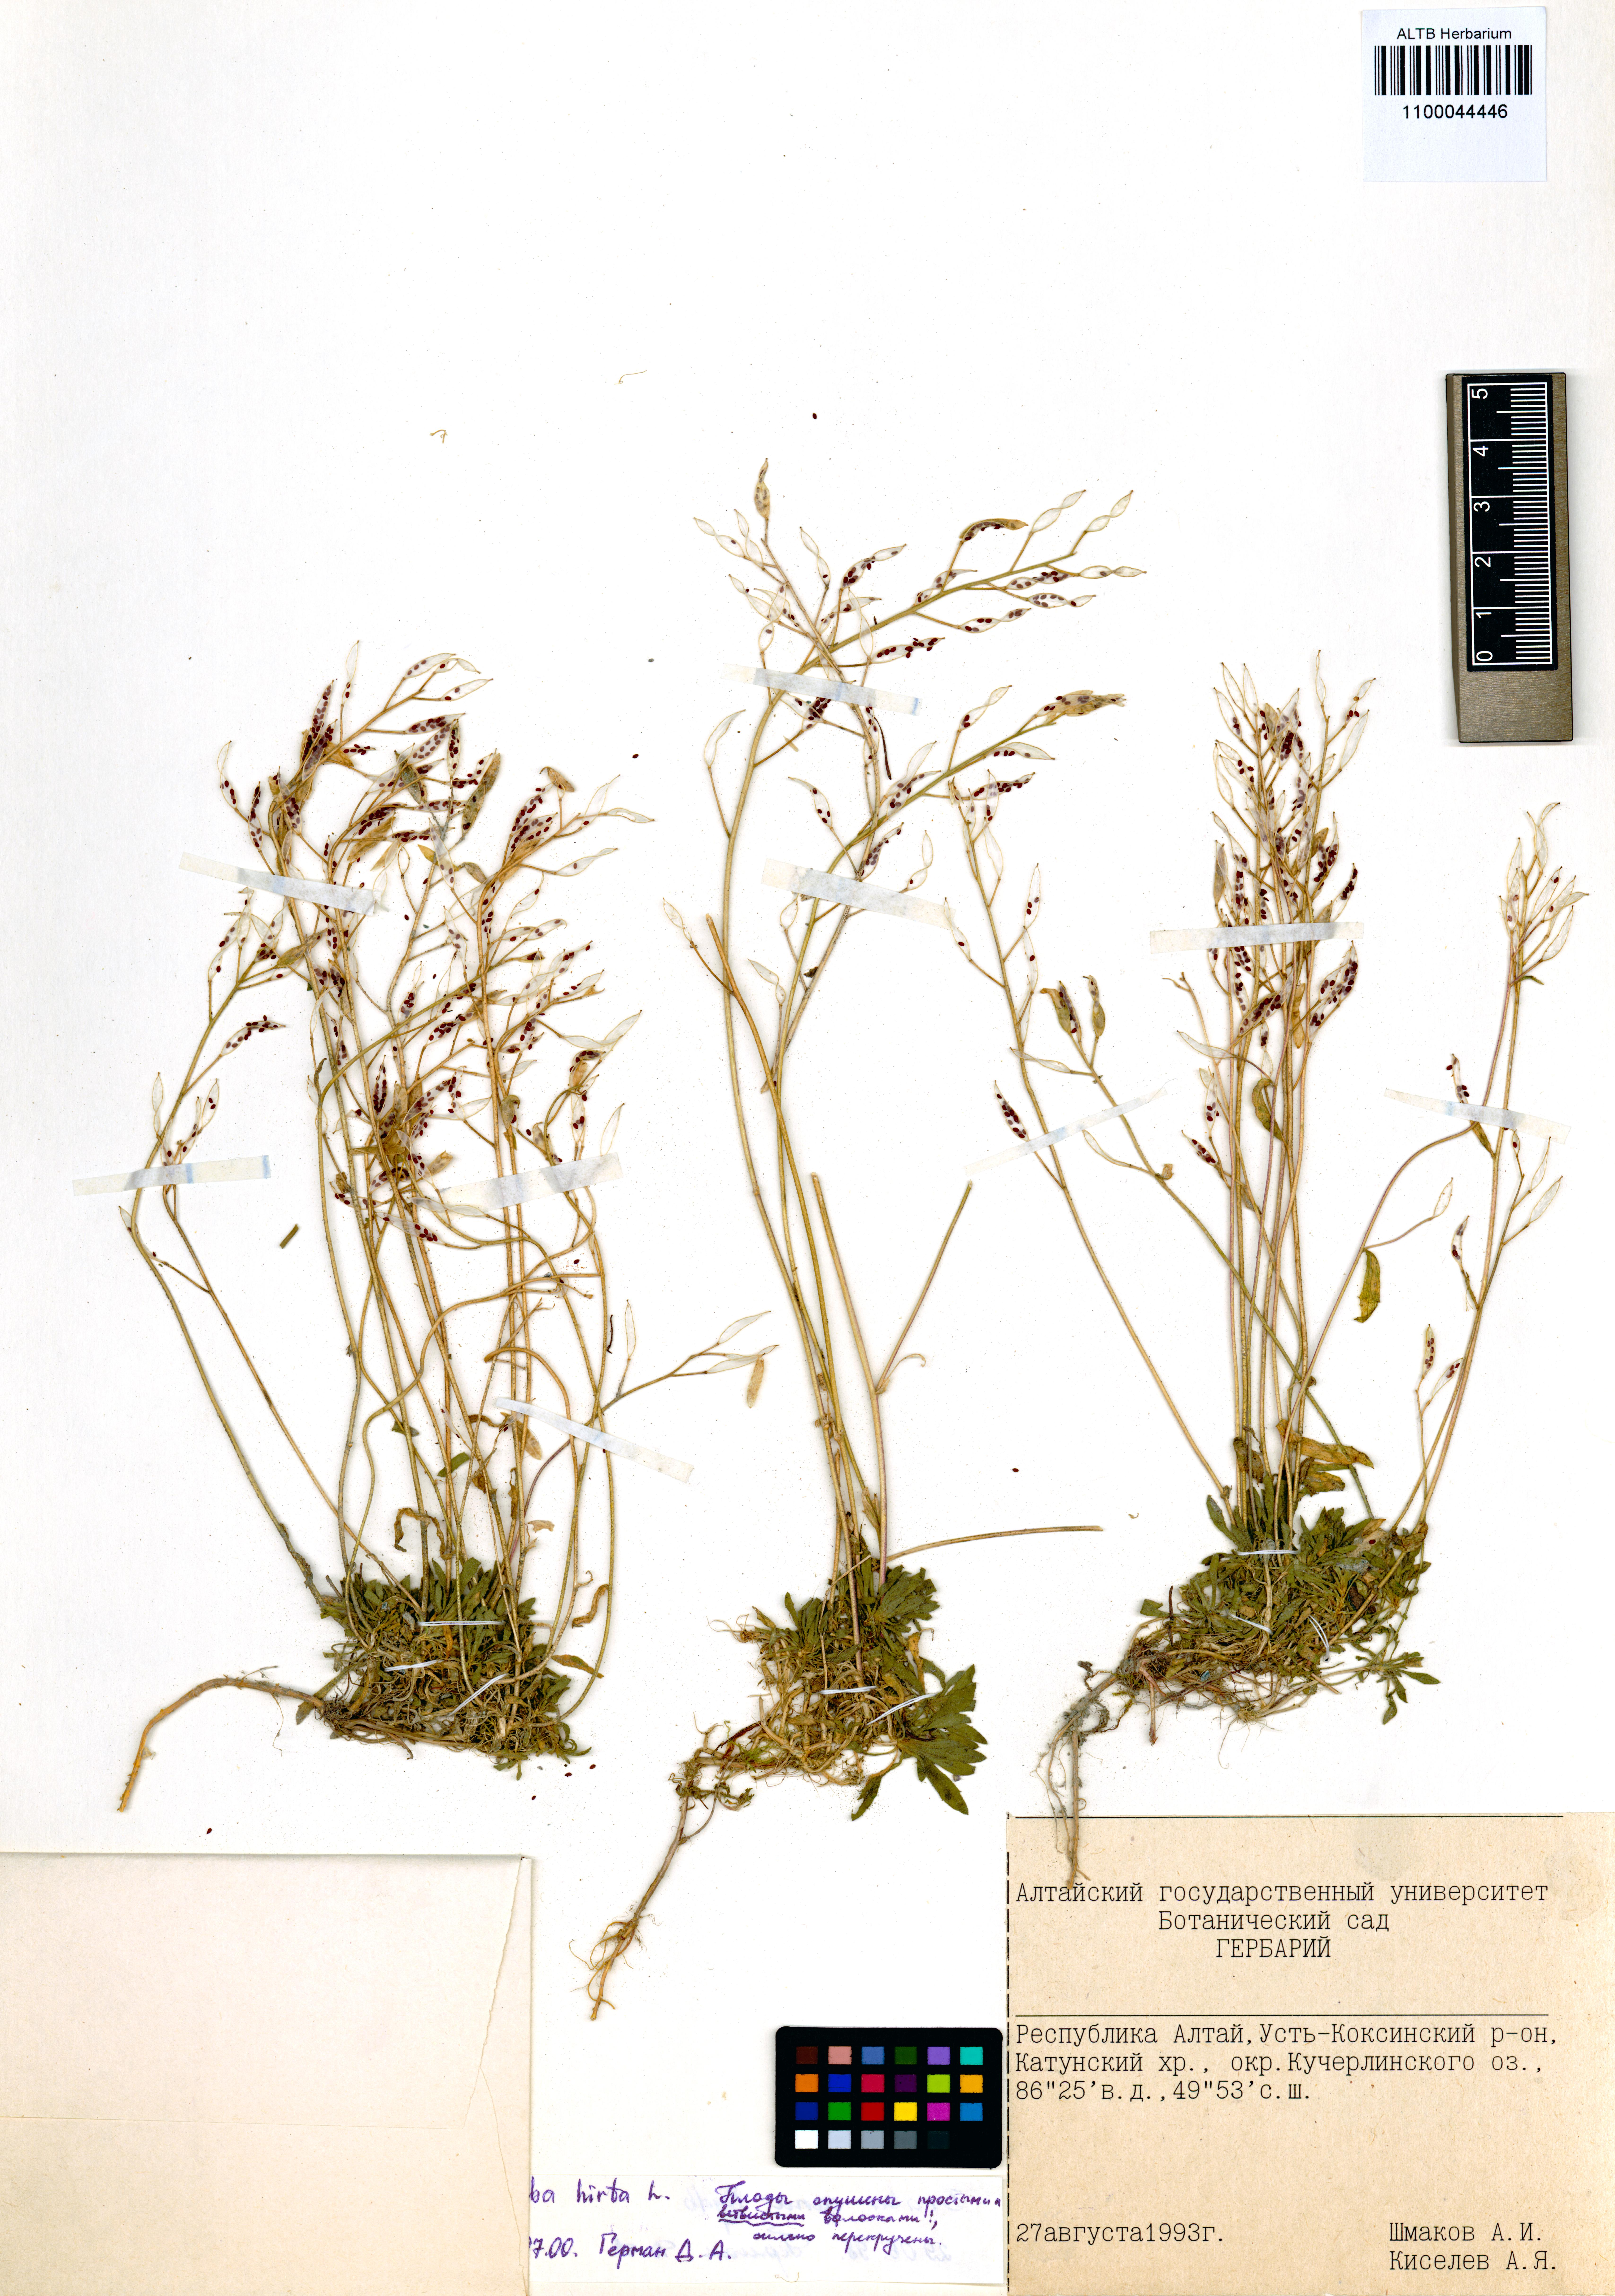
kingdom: Plantae
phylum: Tracheophyta
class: Magnoliopsida
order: Brassicales
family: Brassicaceae
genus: Draba
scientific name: Draba glabella
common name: Glaucous draba
